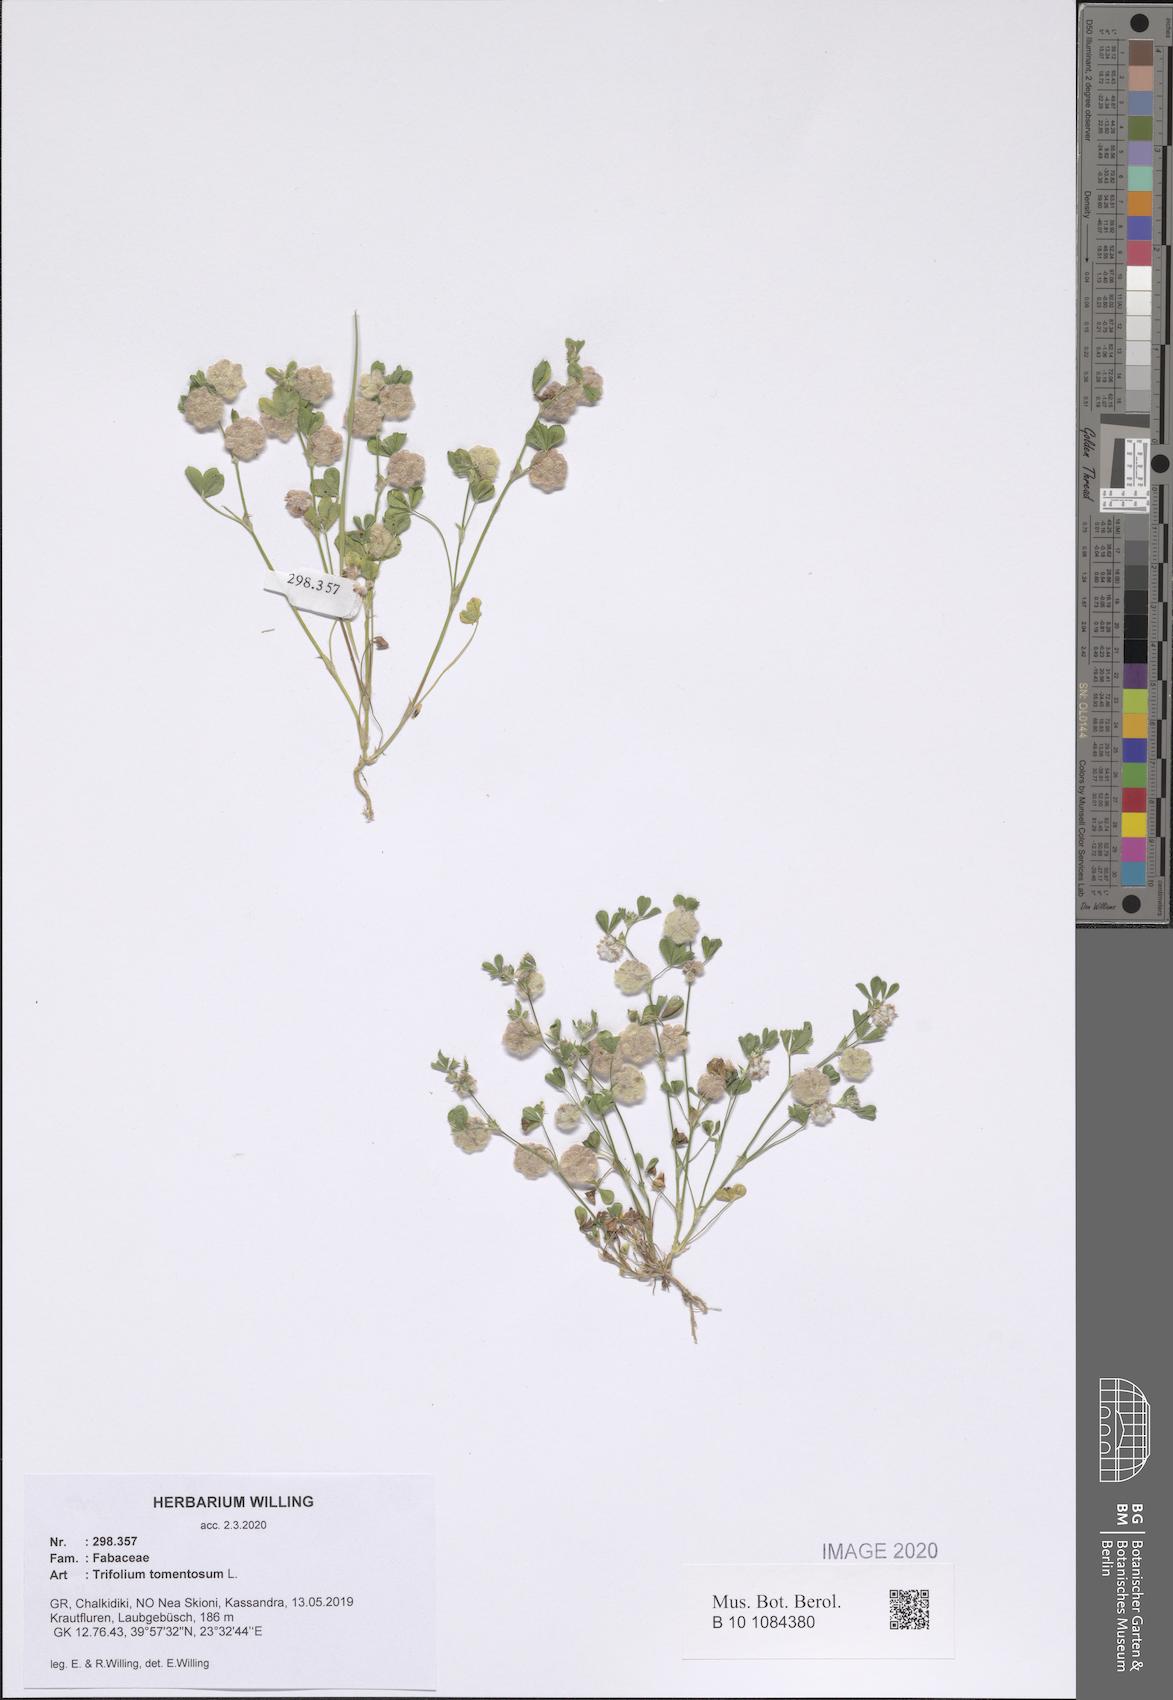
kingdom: Plantae
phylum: Tracheophyta
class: Magnoliopsida
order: Fabales
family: Fabaceae
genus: Trifolium
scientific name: Trifolium tomentosum
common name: Woolly clover
